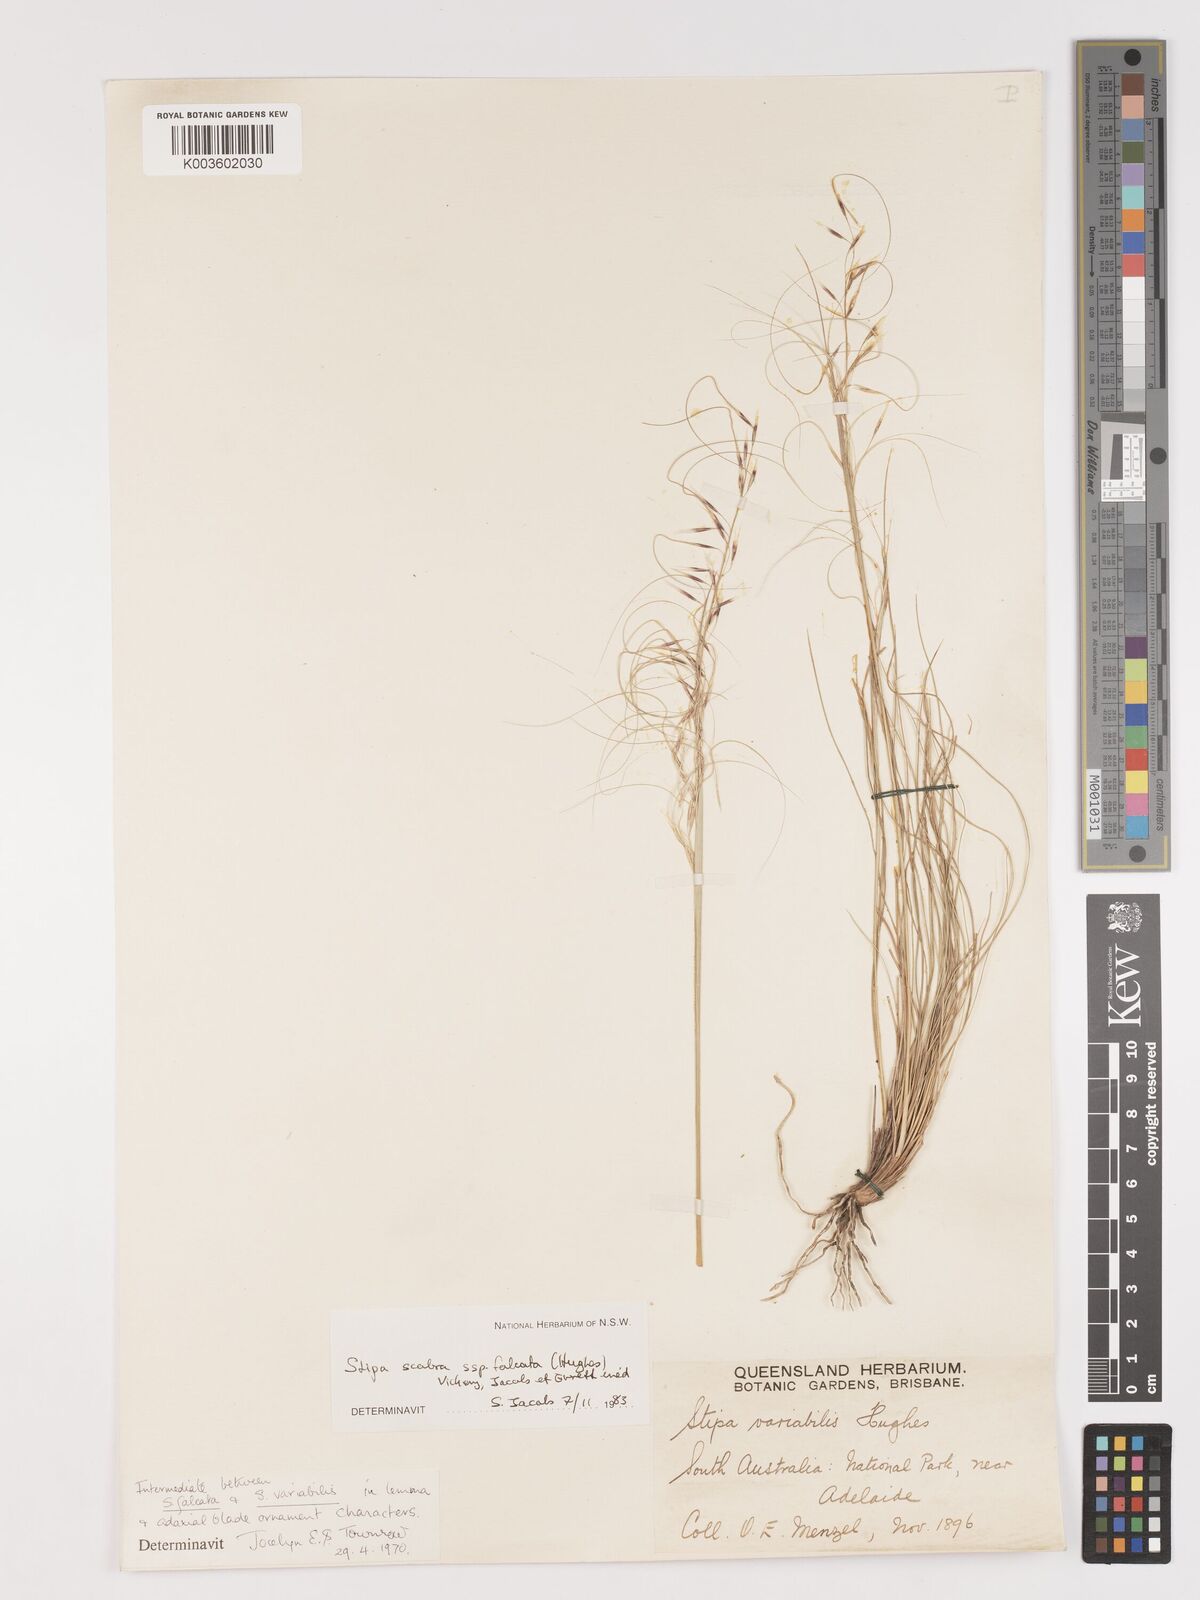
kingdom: Plantae
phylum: Tracheophyta
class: Liliopsida
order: Poales
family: Poaceae
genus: Austrostipa
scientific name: Austrostipa scabra
